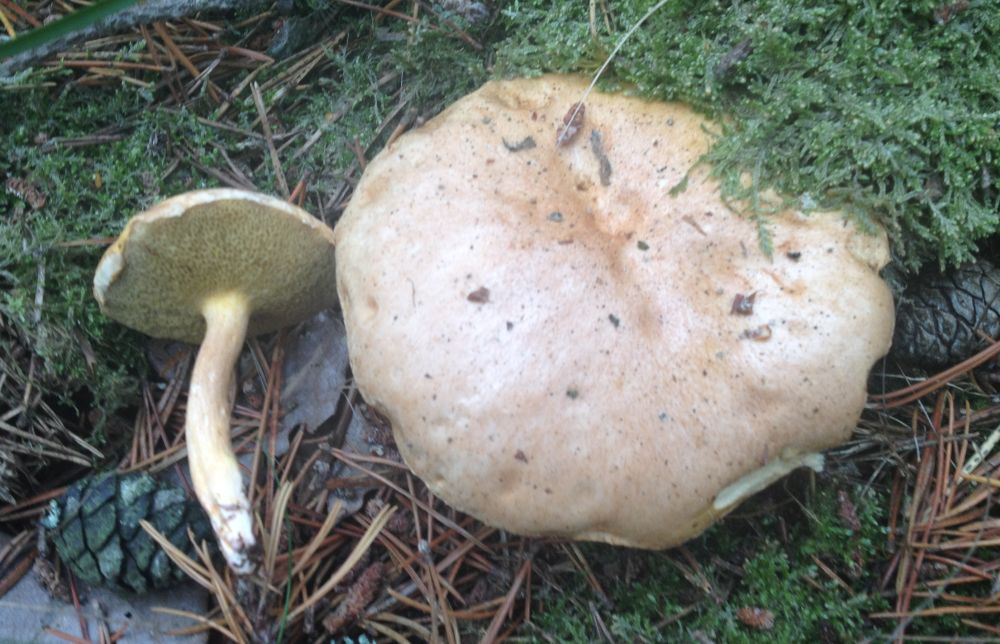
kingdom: Fungi
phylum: Basidiomycota
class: Agaricomycetes
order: Boletales
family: Suillaceae
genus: Suillus
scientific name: Suillus bovinus
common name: grovporet slimrørhat
